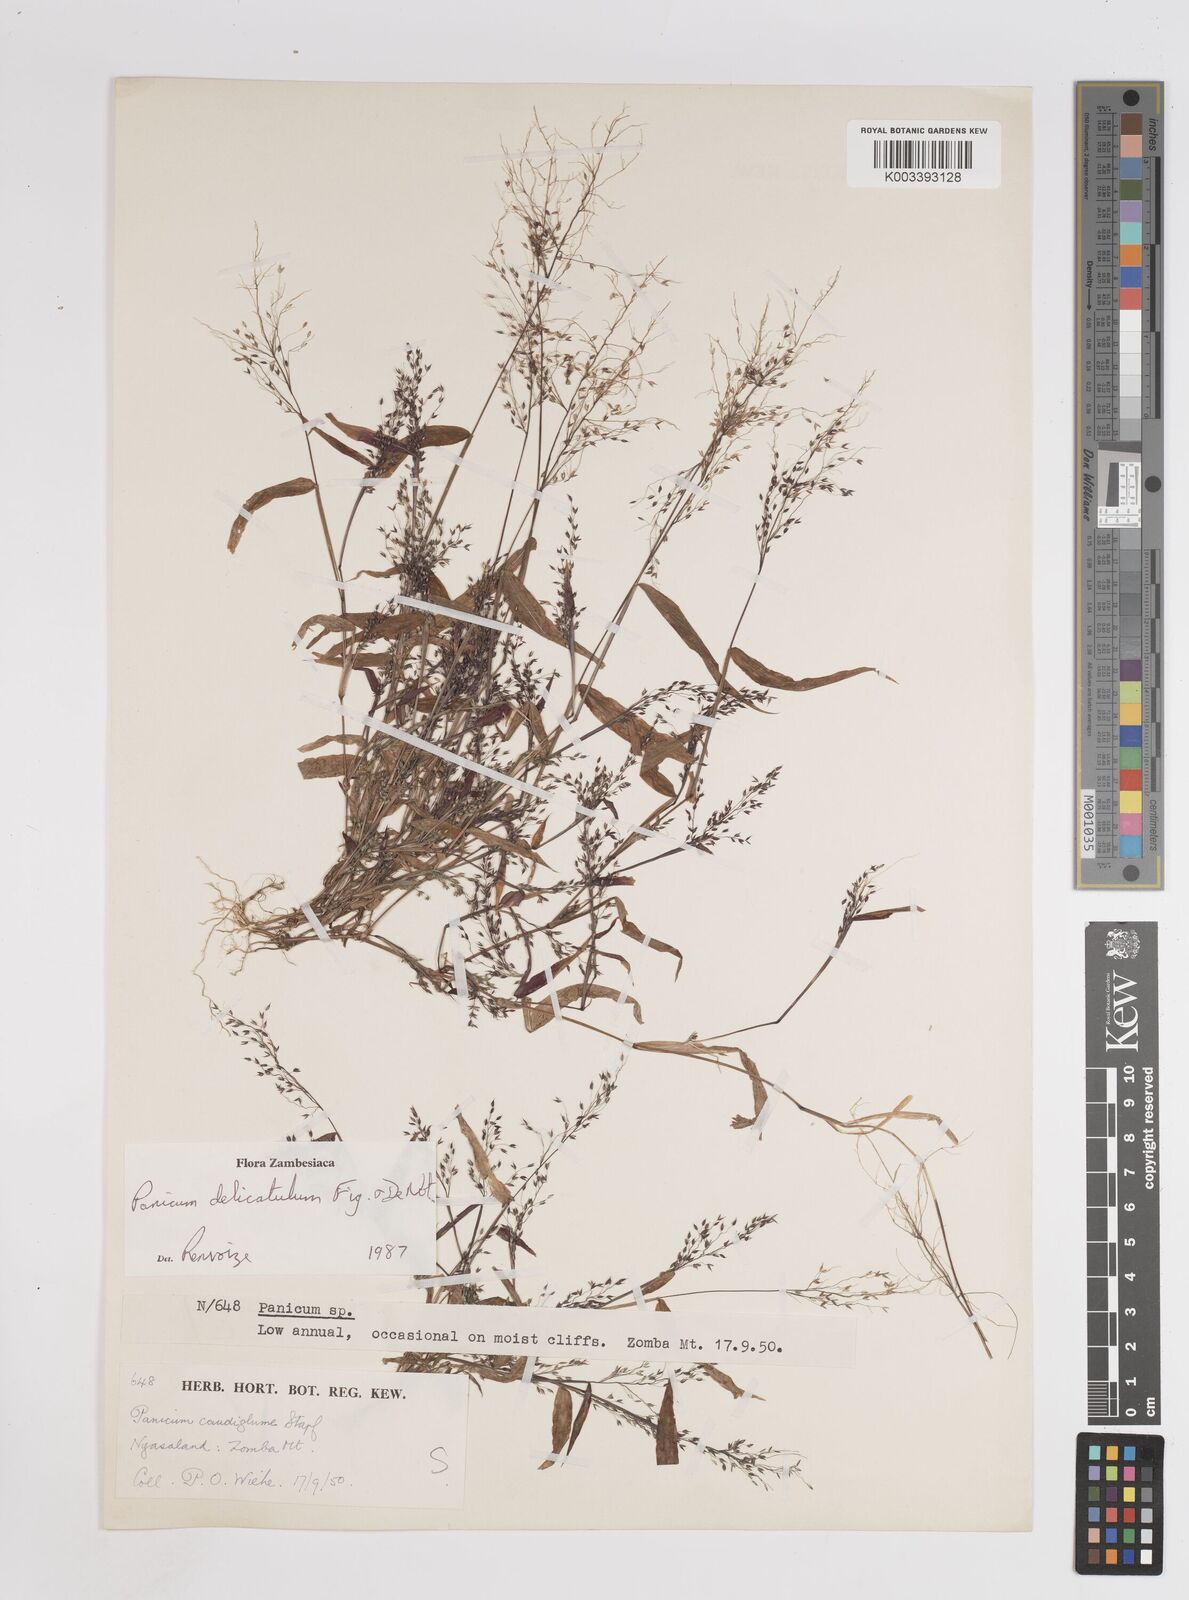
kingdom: Plantae
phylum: Tracheophyta
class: Liliopsida
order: Poales
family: Poaceae
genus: Panicum
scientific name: Panicum delicatulum
